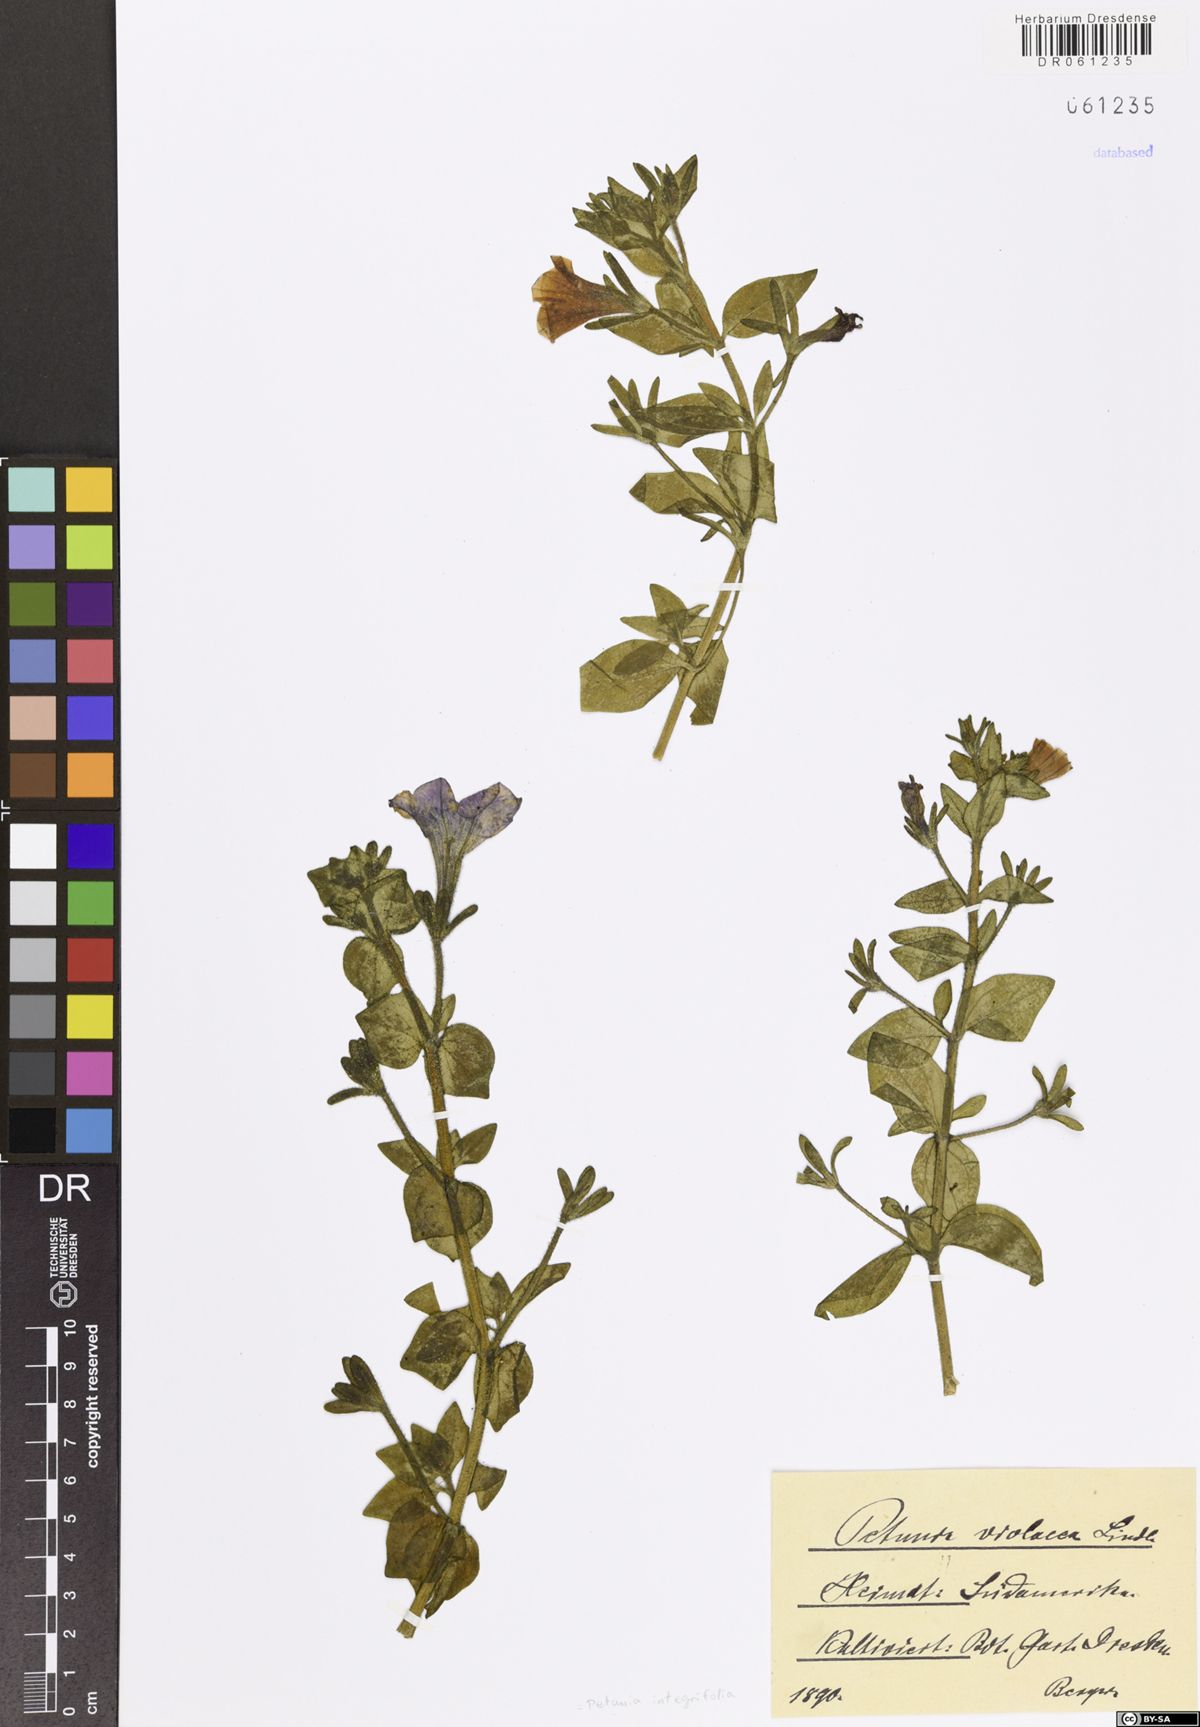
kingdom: Plantae
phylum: Tracheophyta
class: Magnoliopsida
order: Solanales
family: Solanaceae
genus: Petunia
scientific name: Petunia integrifolia
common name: Violet-flower petunia
